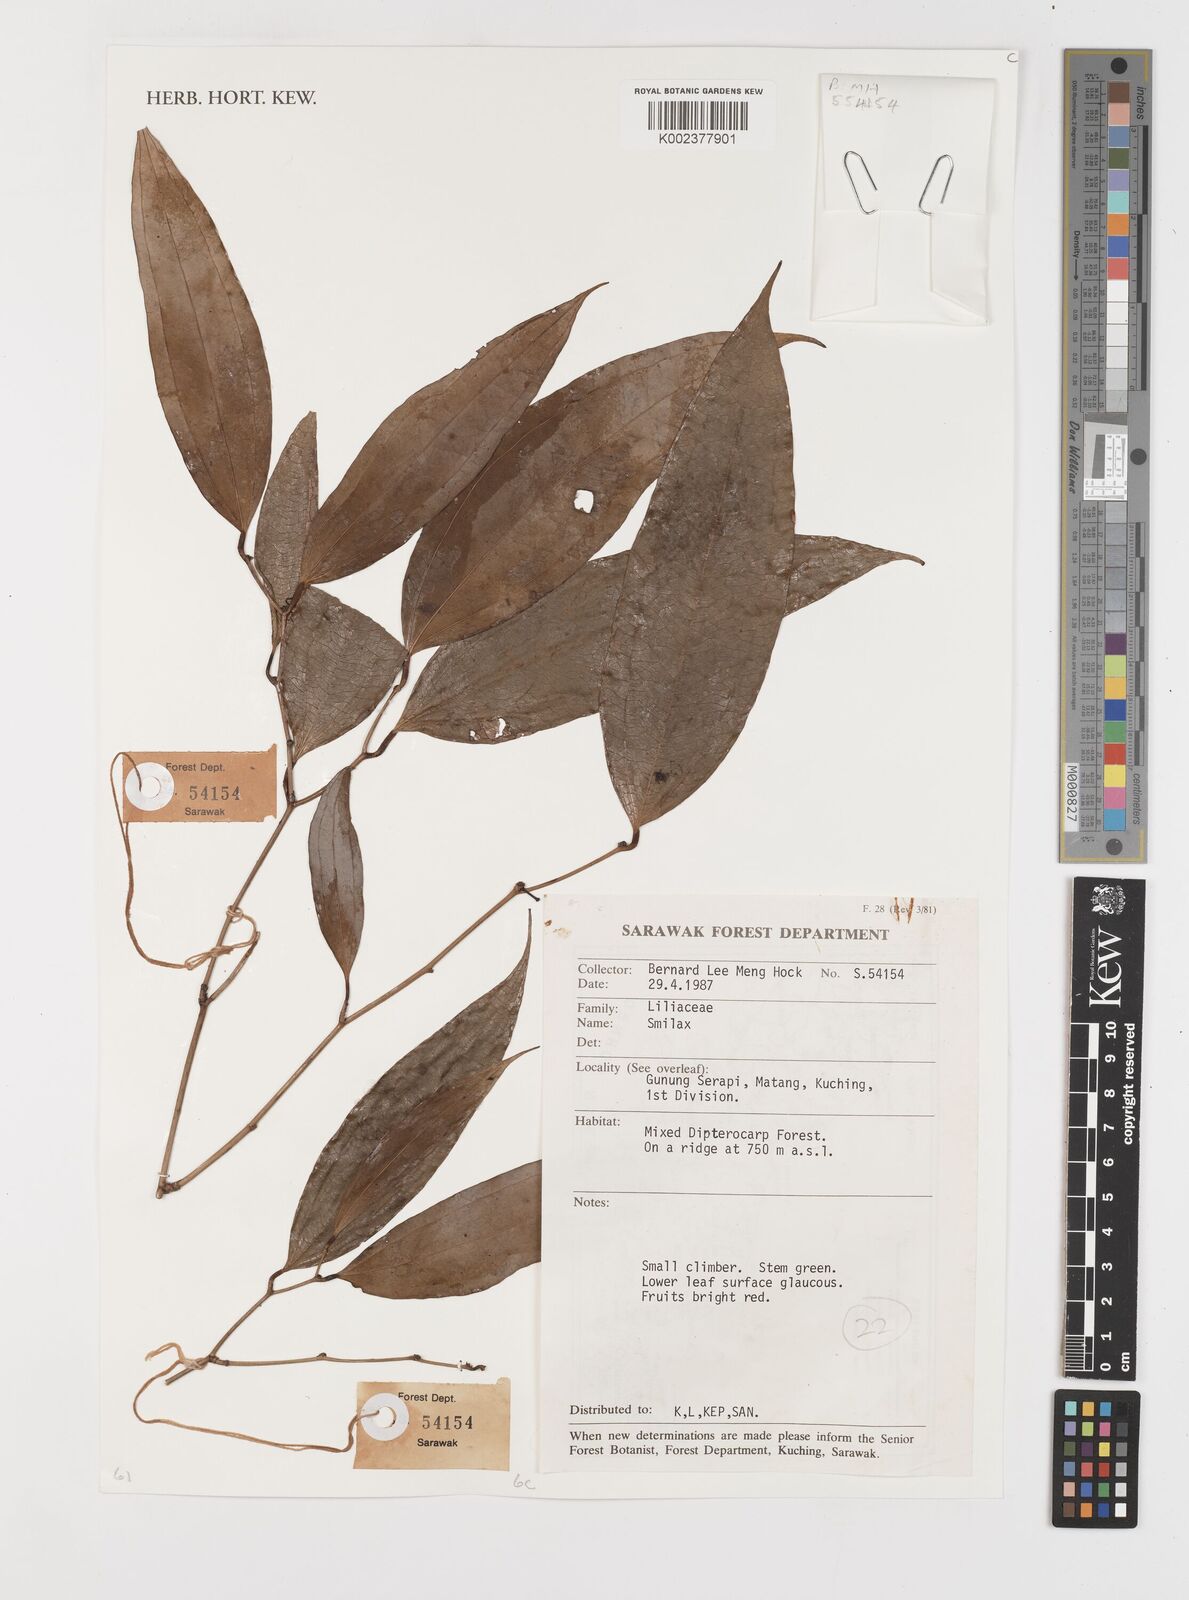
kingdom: Plantae
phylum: Tracheophyta
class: Liliopsida
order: Liliales
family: Smilacaceae
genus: Smilax
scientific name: Smilax
